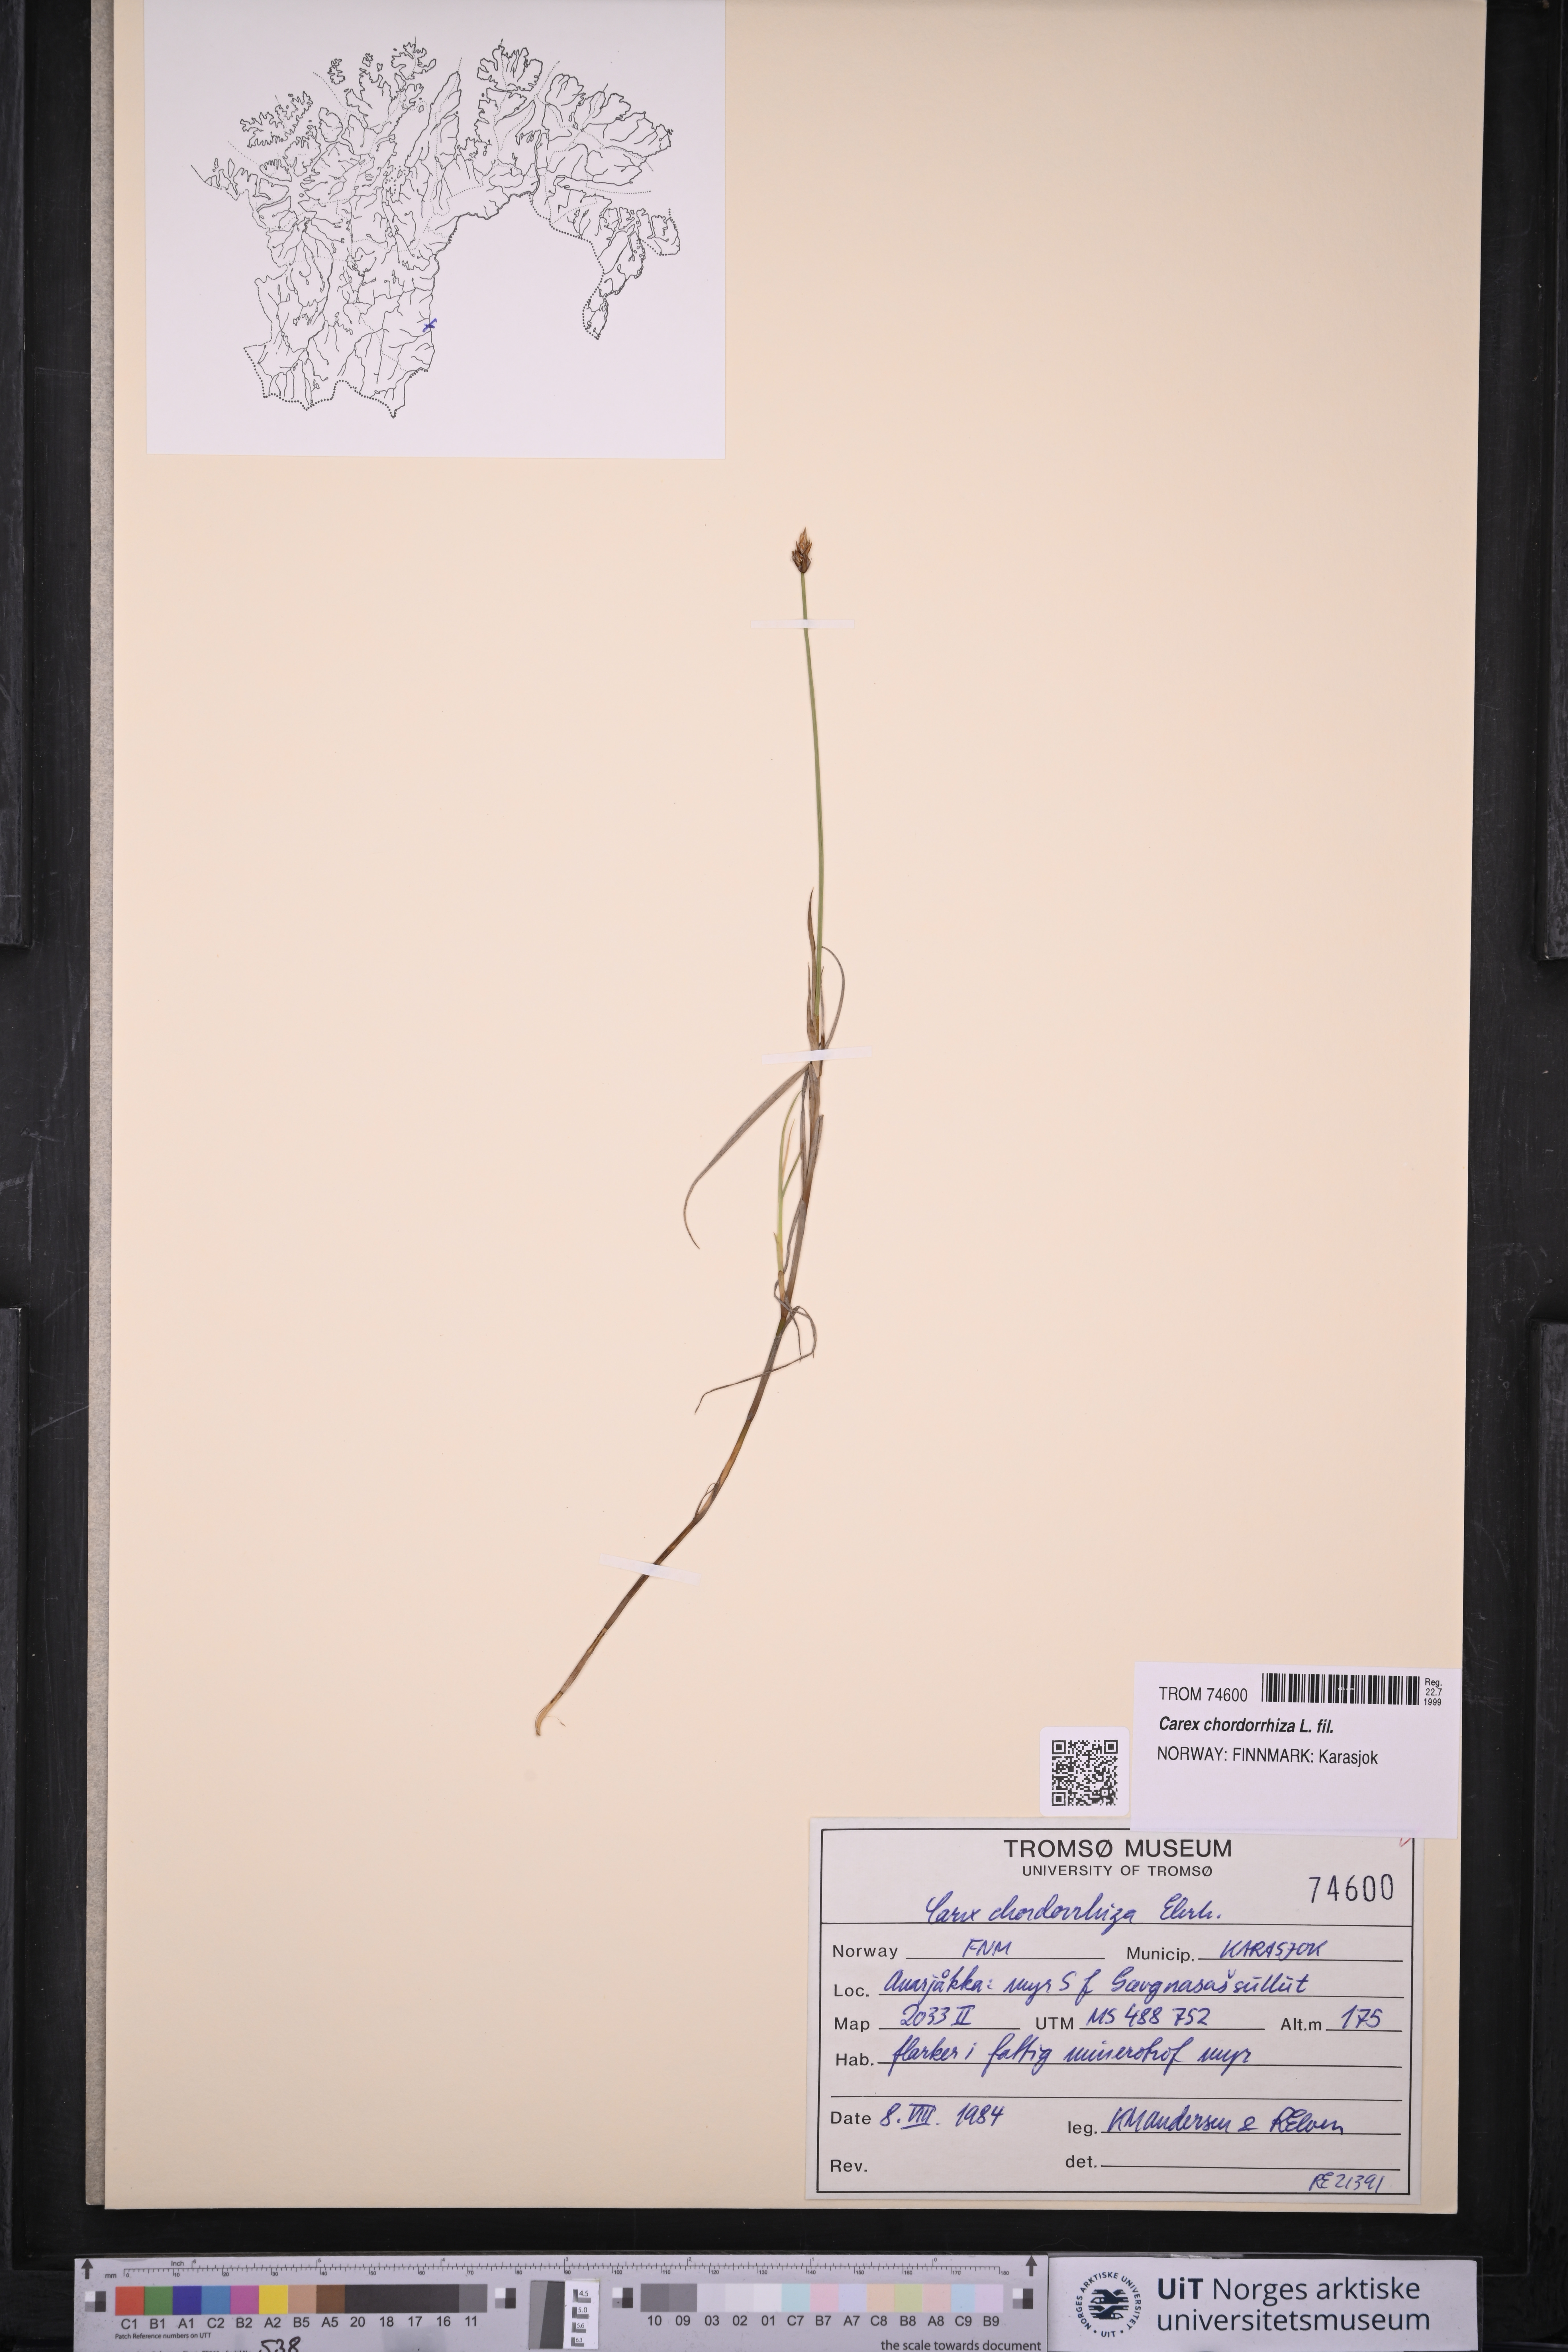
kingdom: Plantae
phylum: Tracheophyta
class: Liliopsida
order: Poales
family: Cyperaceae
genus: Carex
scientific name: Carex chordorrhiza
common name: String sedge
